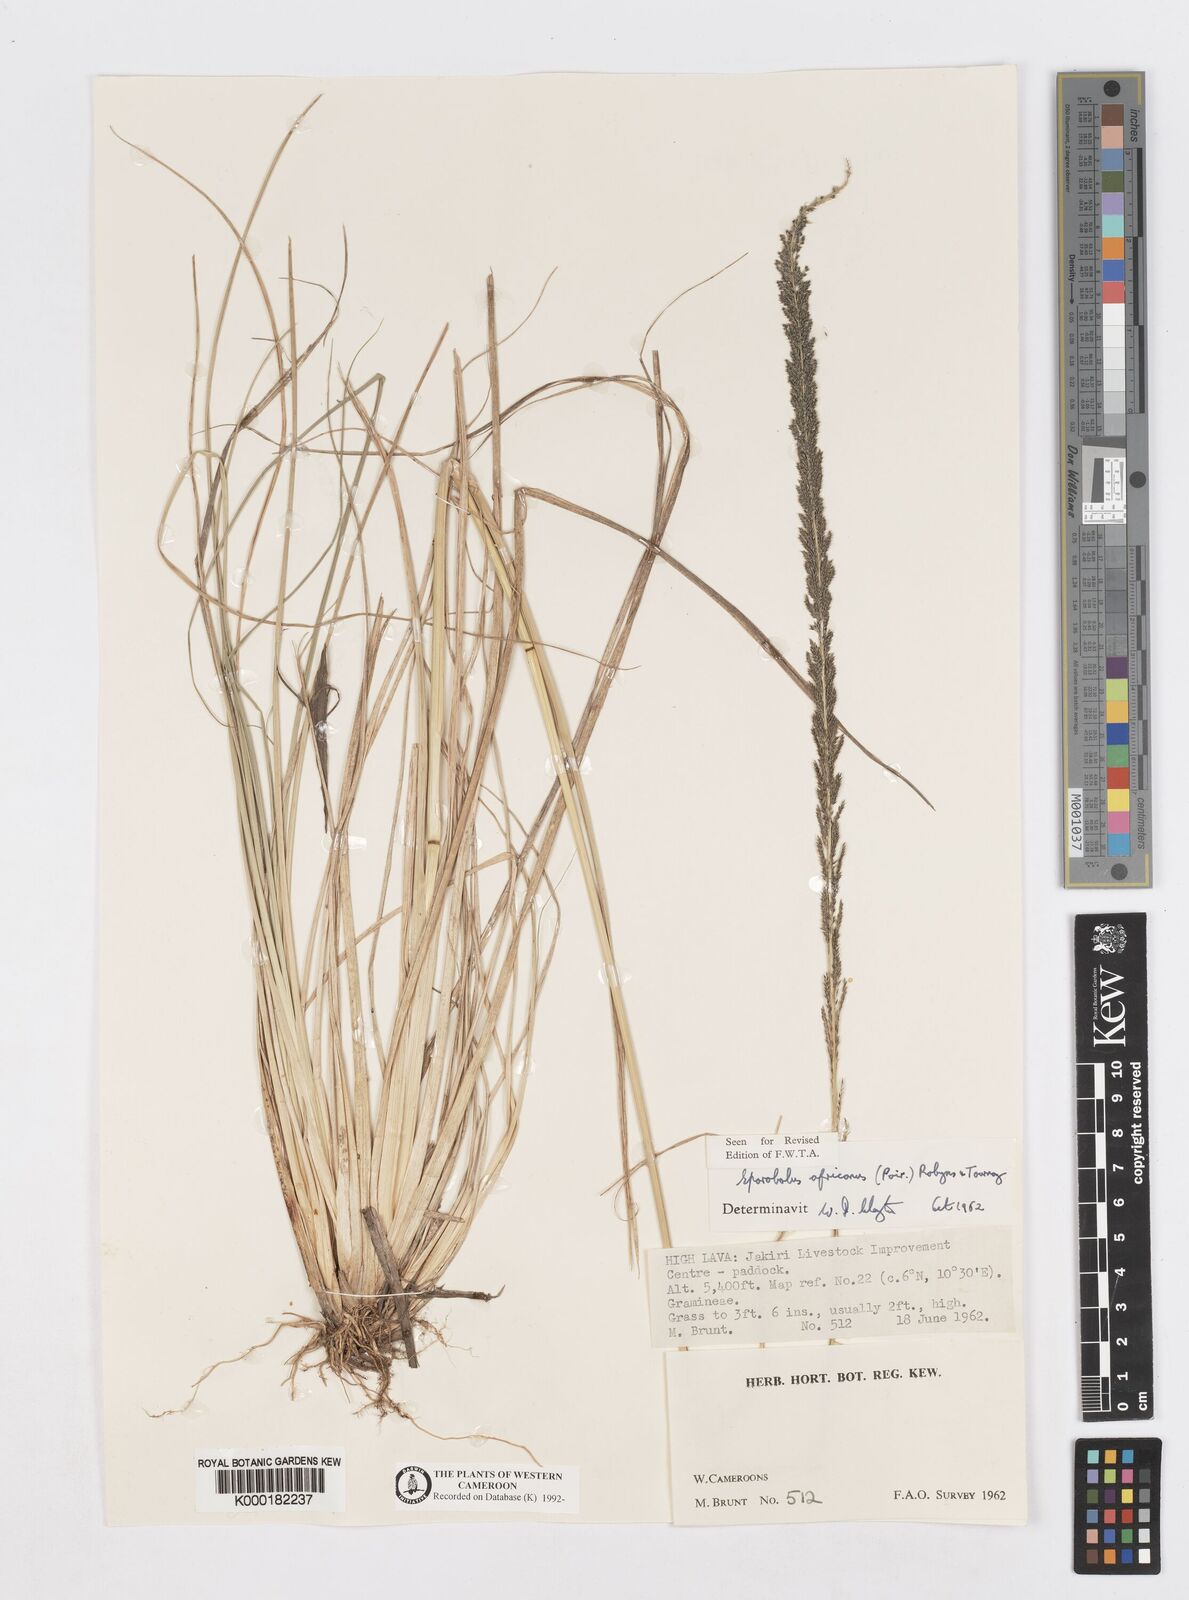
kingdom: Plantae
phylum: Tracheophyta
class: Liliopsida
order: Poales
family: Poaceae
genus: Sporobolus
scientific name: Sporobolus africanus
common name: African dropseed
